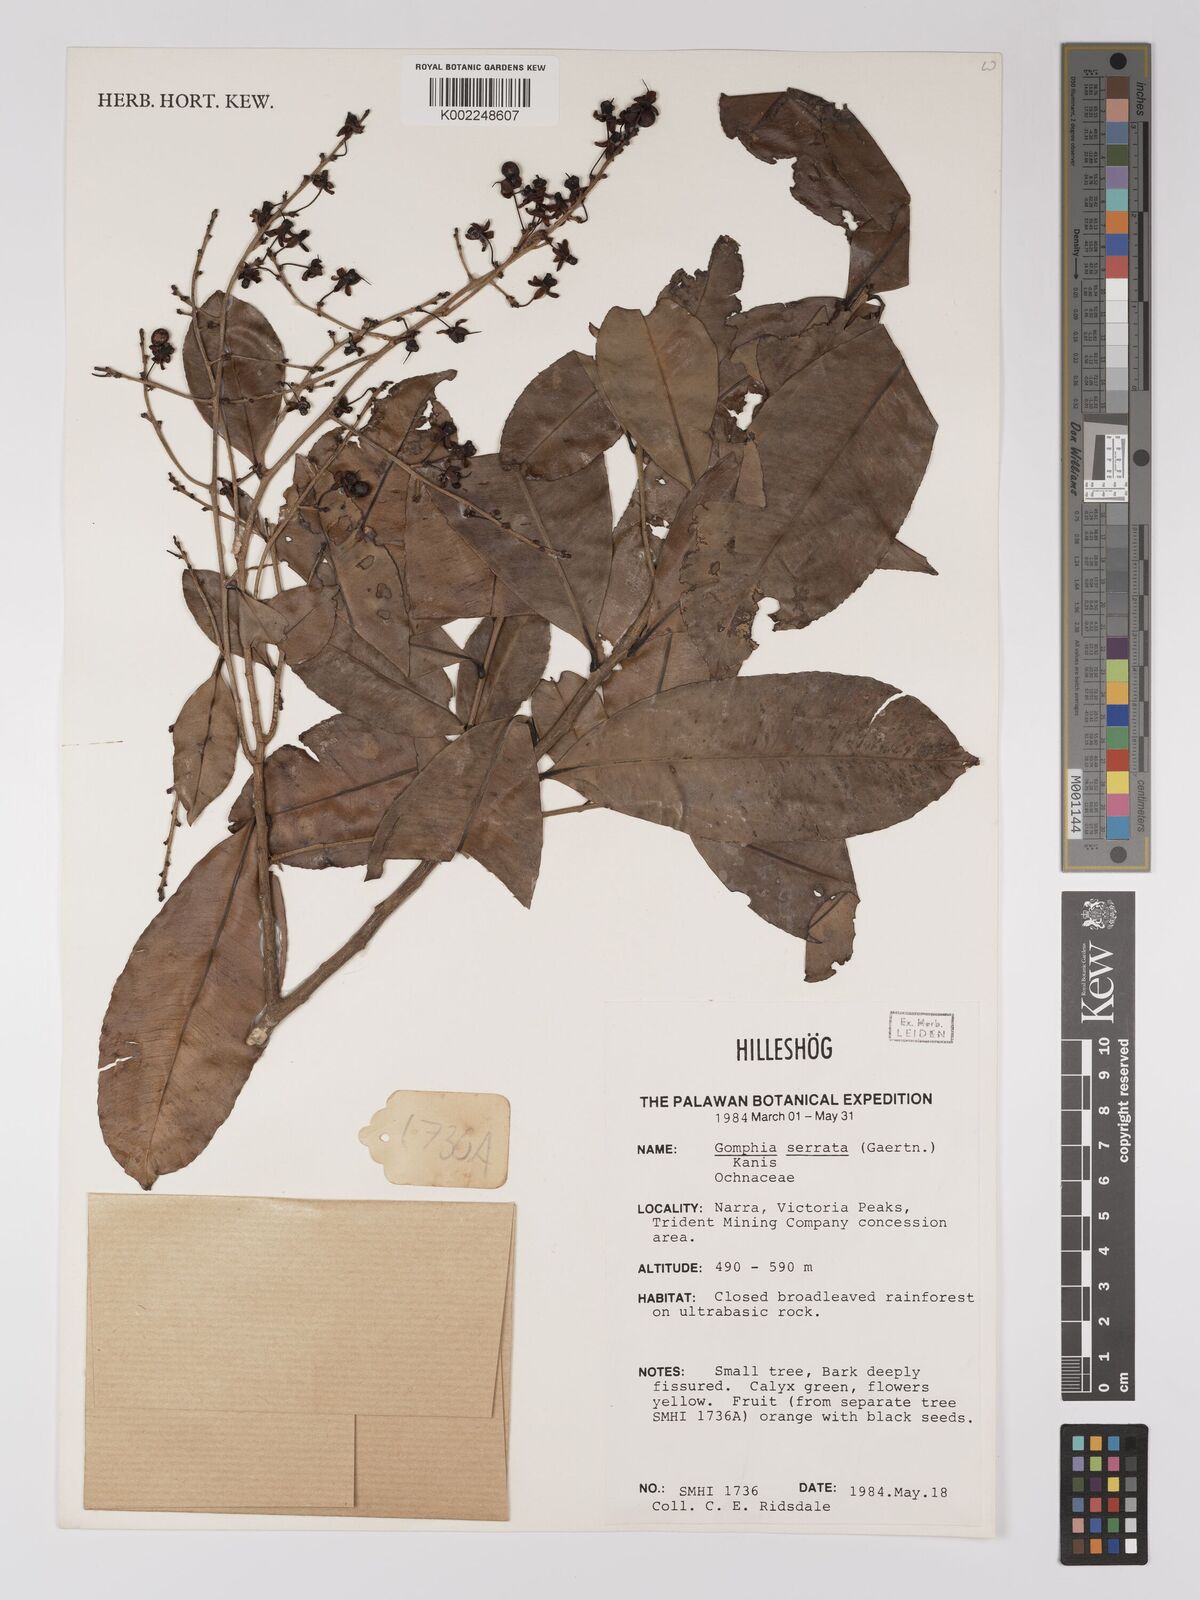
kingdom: Plantae
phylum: Tracheophyta
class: Magnoliopsida
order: Malpighiales
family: Ochnaceae
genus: Gomphia
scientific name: Gomphia serrata
